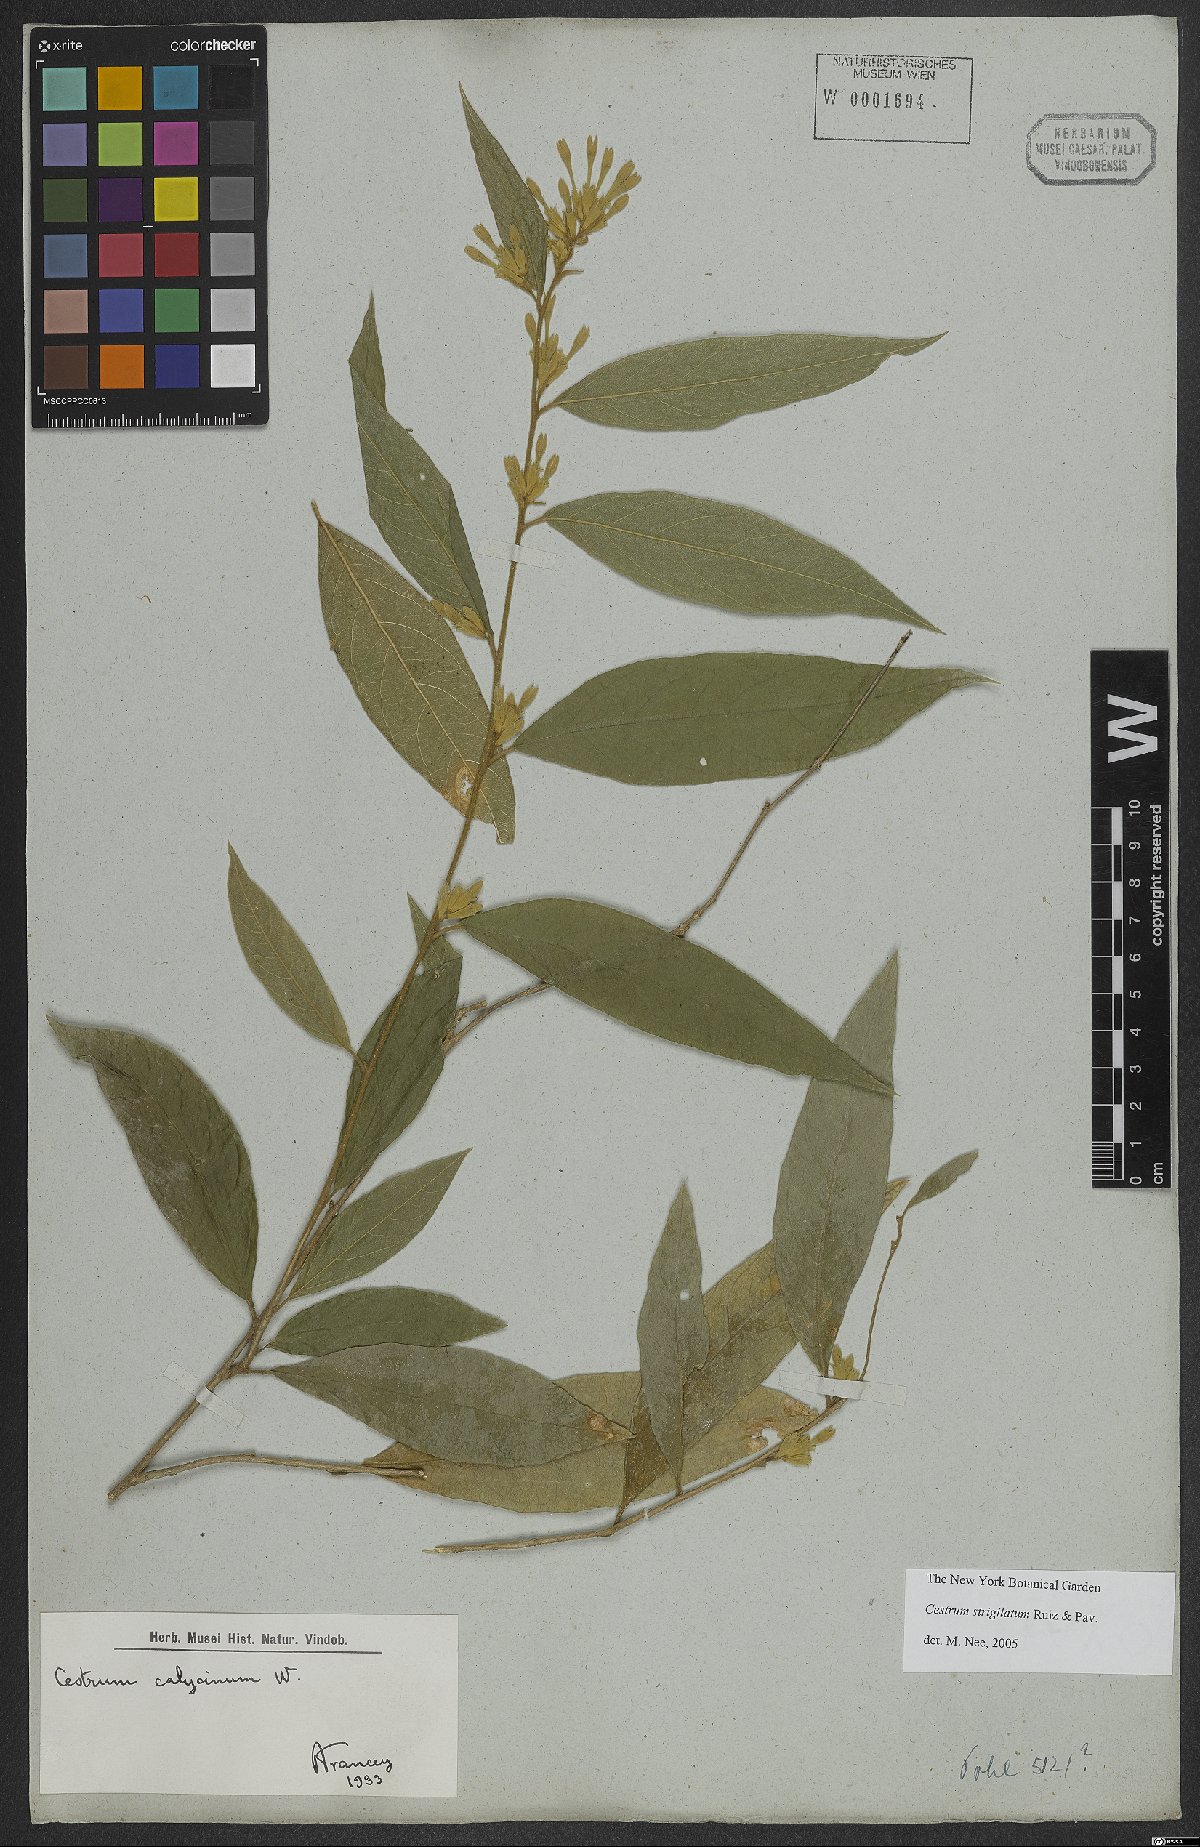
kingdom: Plantae
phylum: Tracheophyta
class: Magnoliopsida
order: Solanales
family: Solanaceae
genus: Cestrum
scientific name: Cestrum strigillatum
